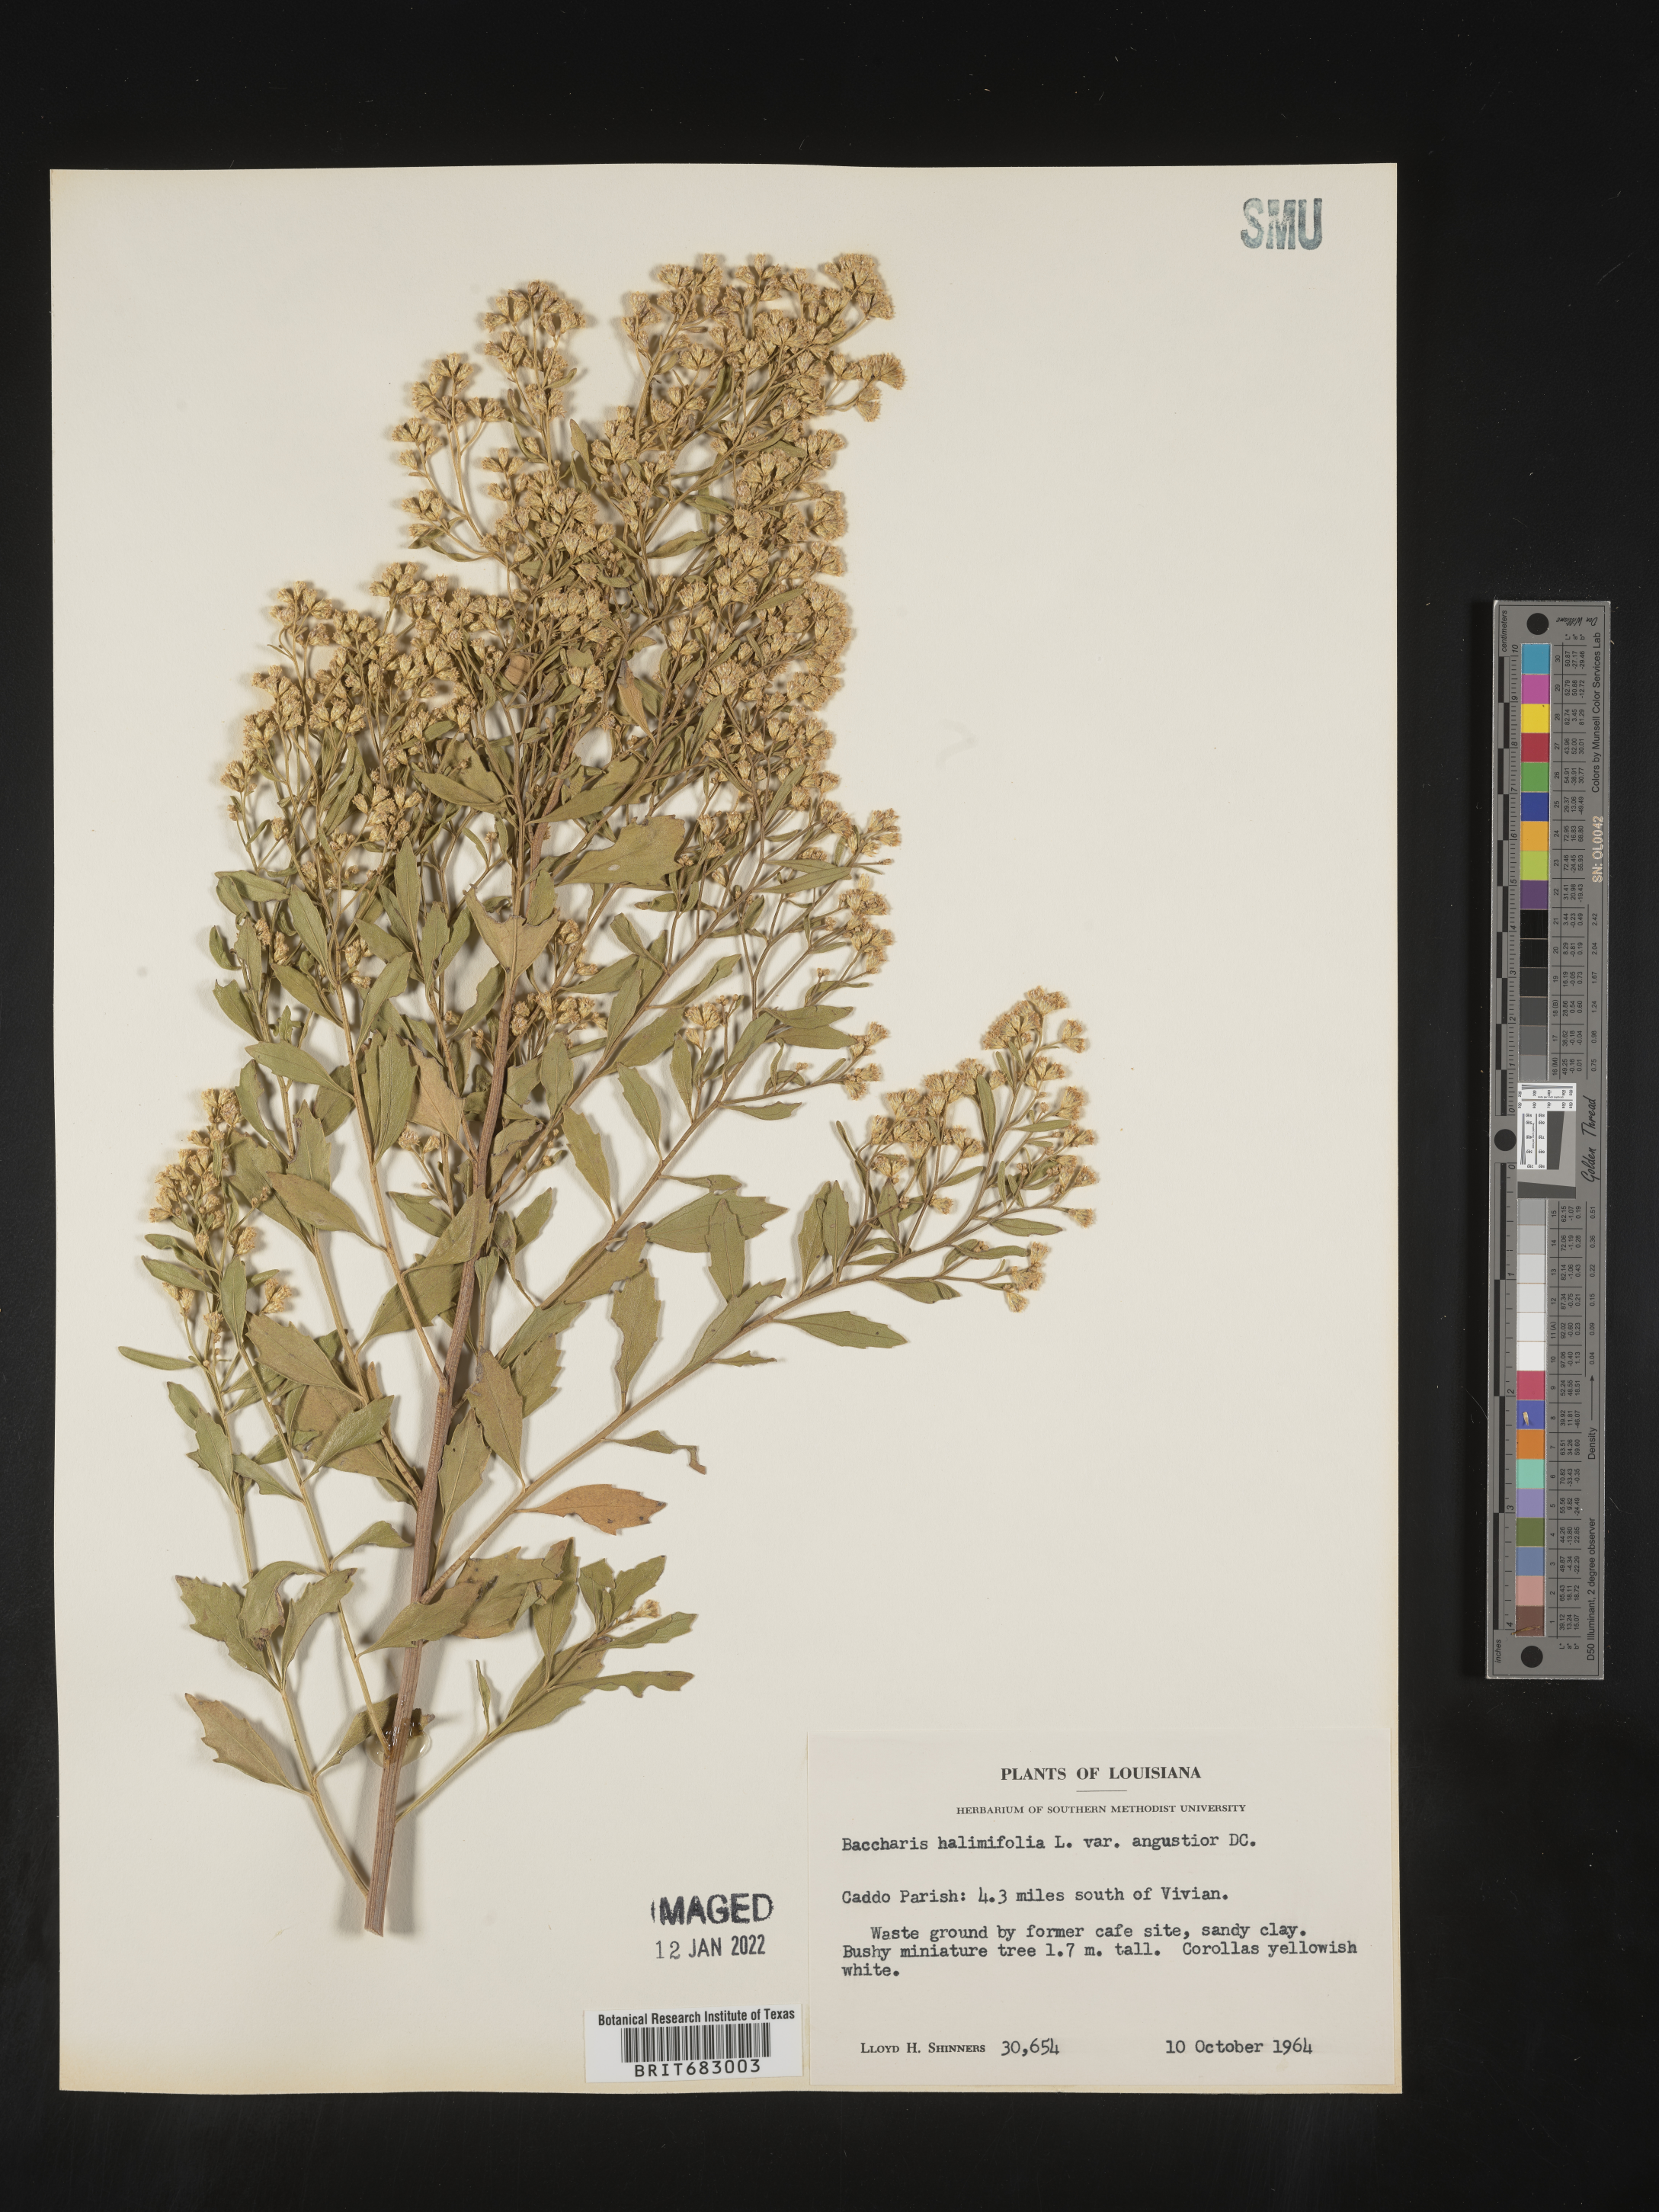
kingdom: Plantae
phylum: Tracheophyta
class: Magnoliopsida
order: Asterales
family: Asteraceae
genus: Nidorella
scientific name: Nidorella ivifolia
